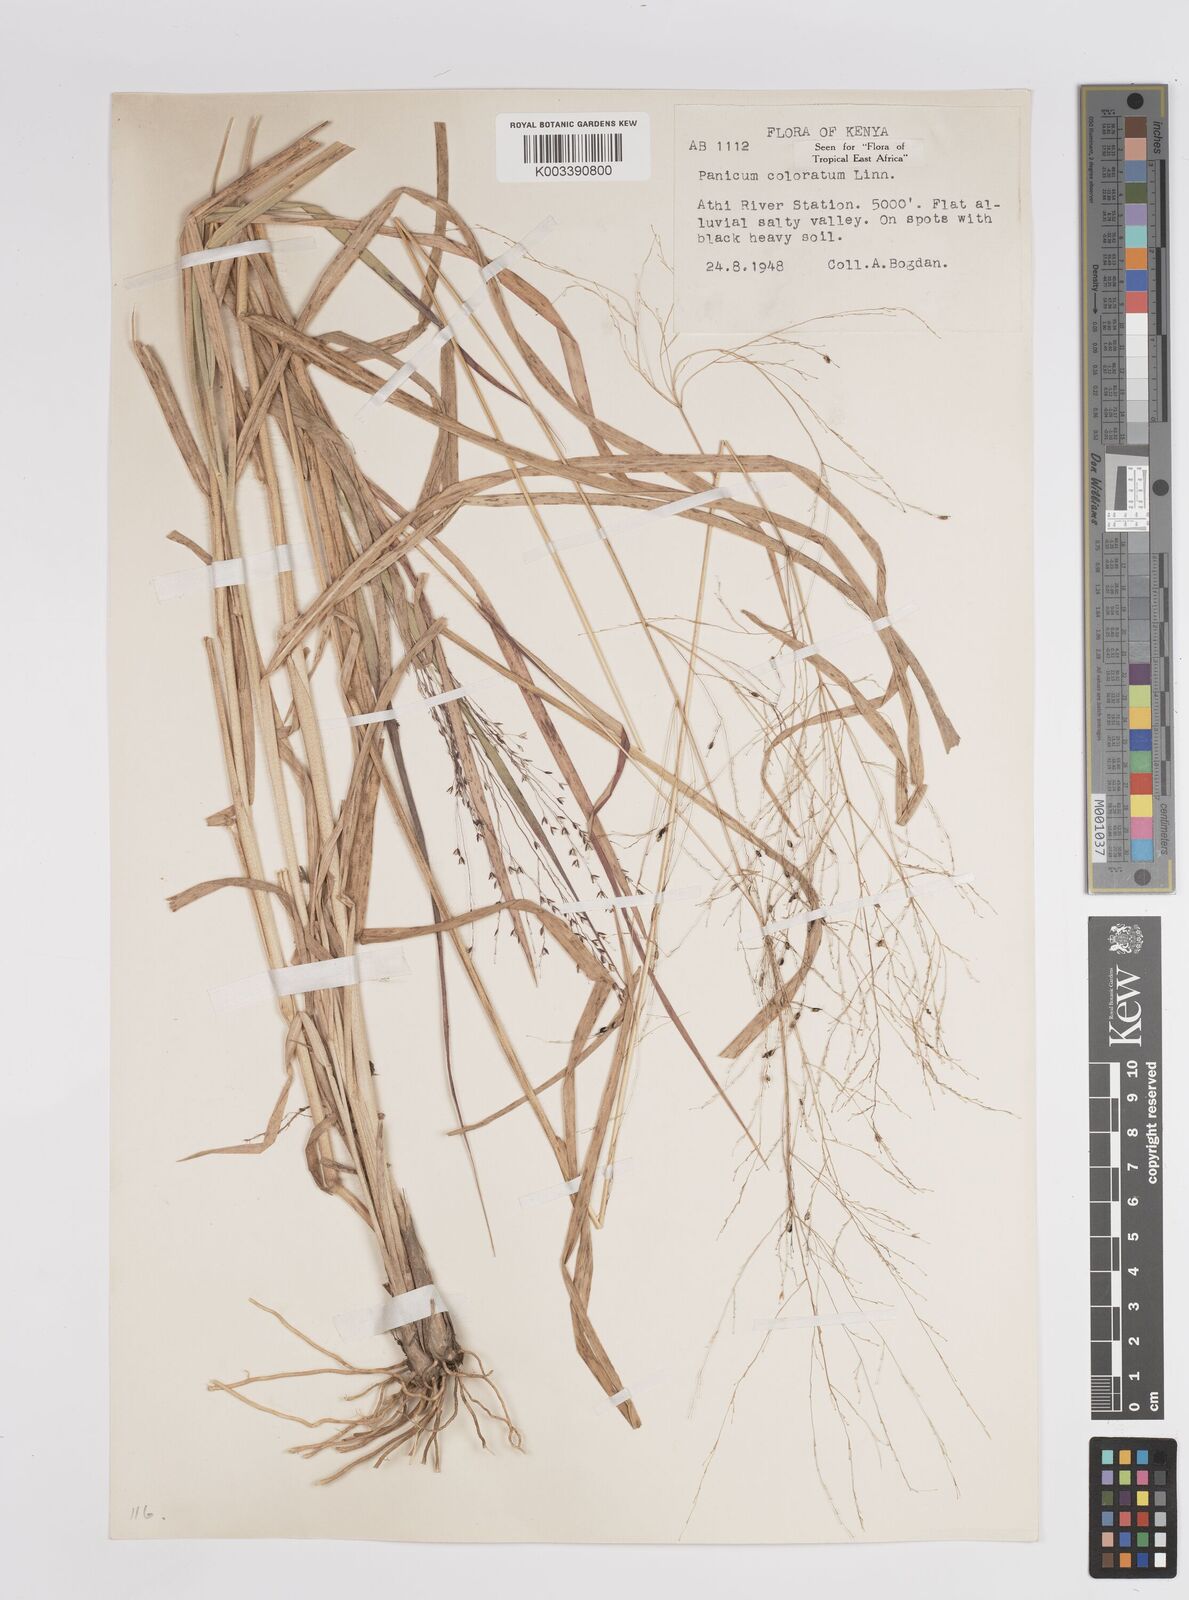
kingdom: Plantae
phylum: Tracheophyta
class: Liliopsida
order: Poales
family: Poaceae
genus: Panicum
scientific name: Panicum coloratum
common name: Kleingrass
